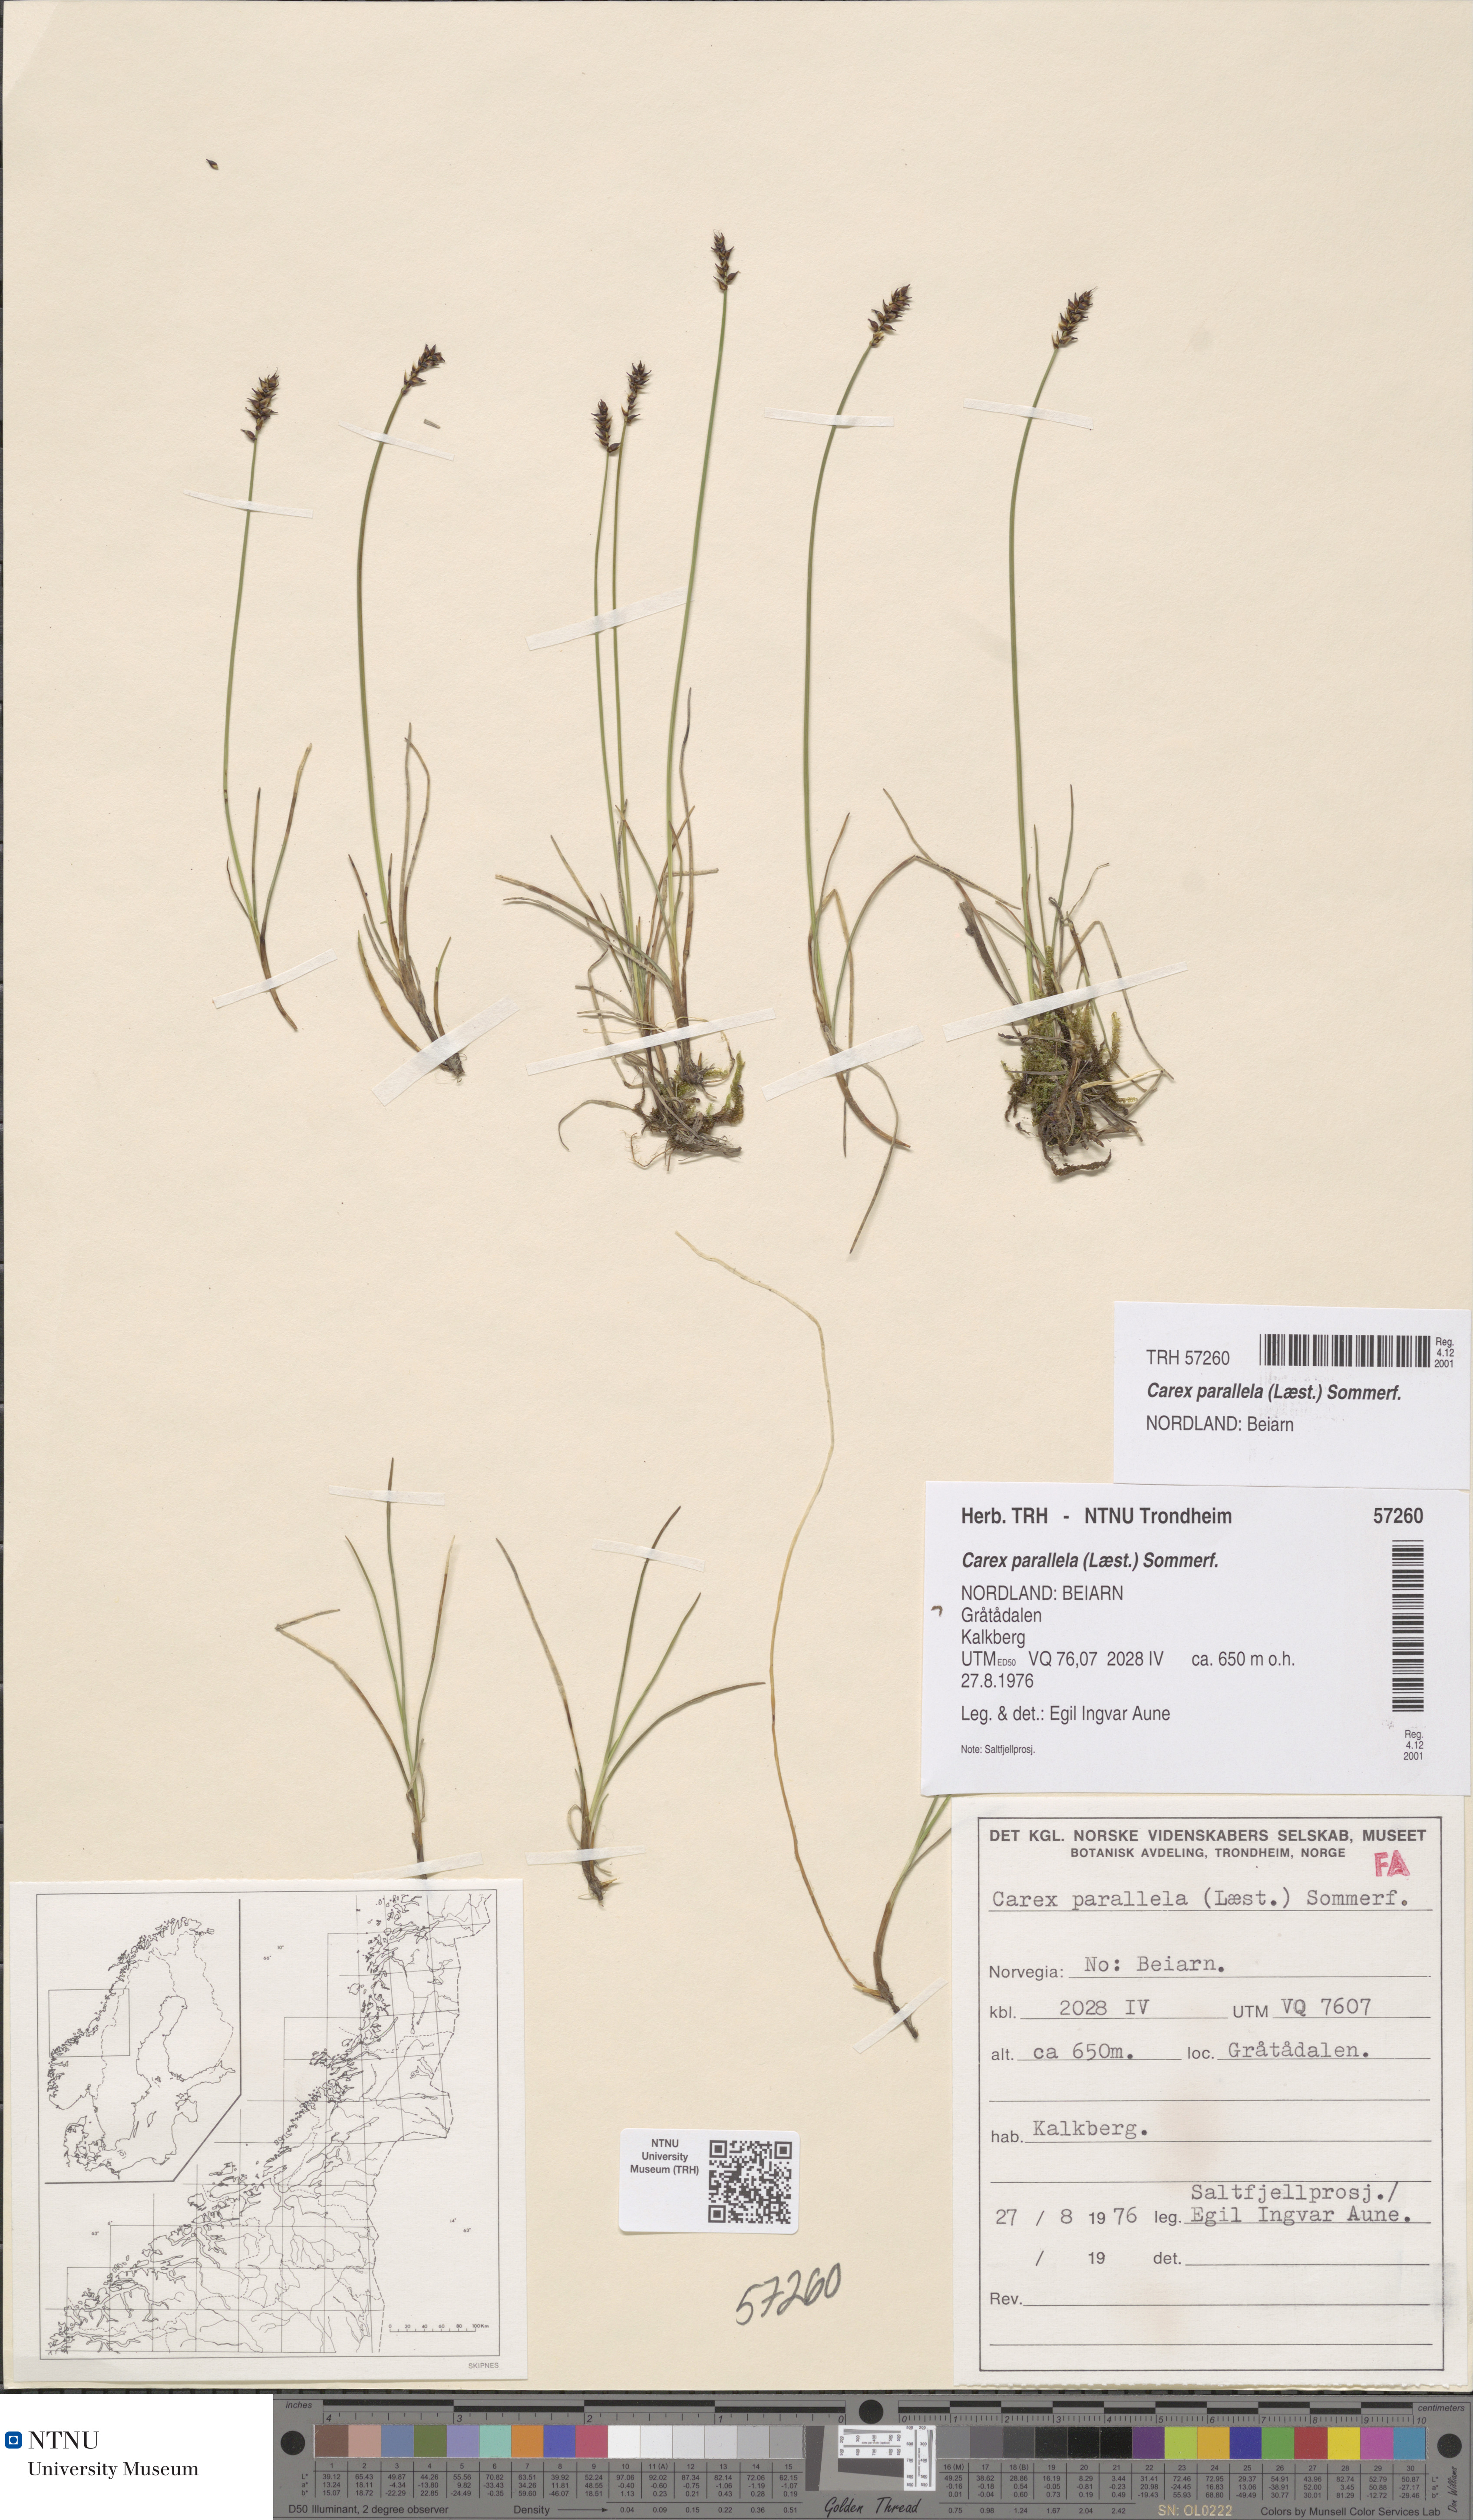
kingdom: Plantae
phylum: Tracheophyta
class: Liliopsida
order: Poales
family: Cyperaceae
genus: Carex
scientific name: Carex parallela
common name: Parallel sedge
